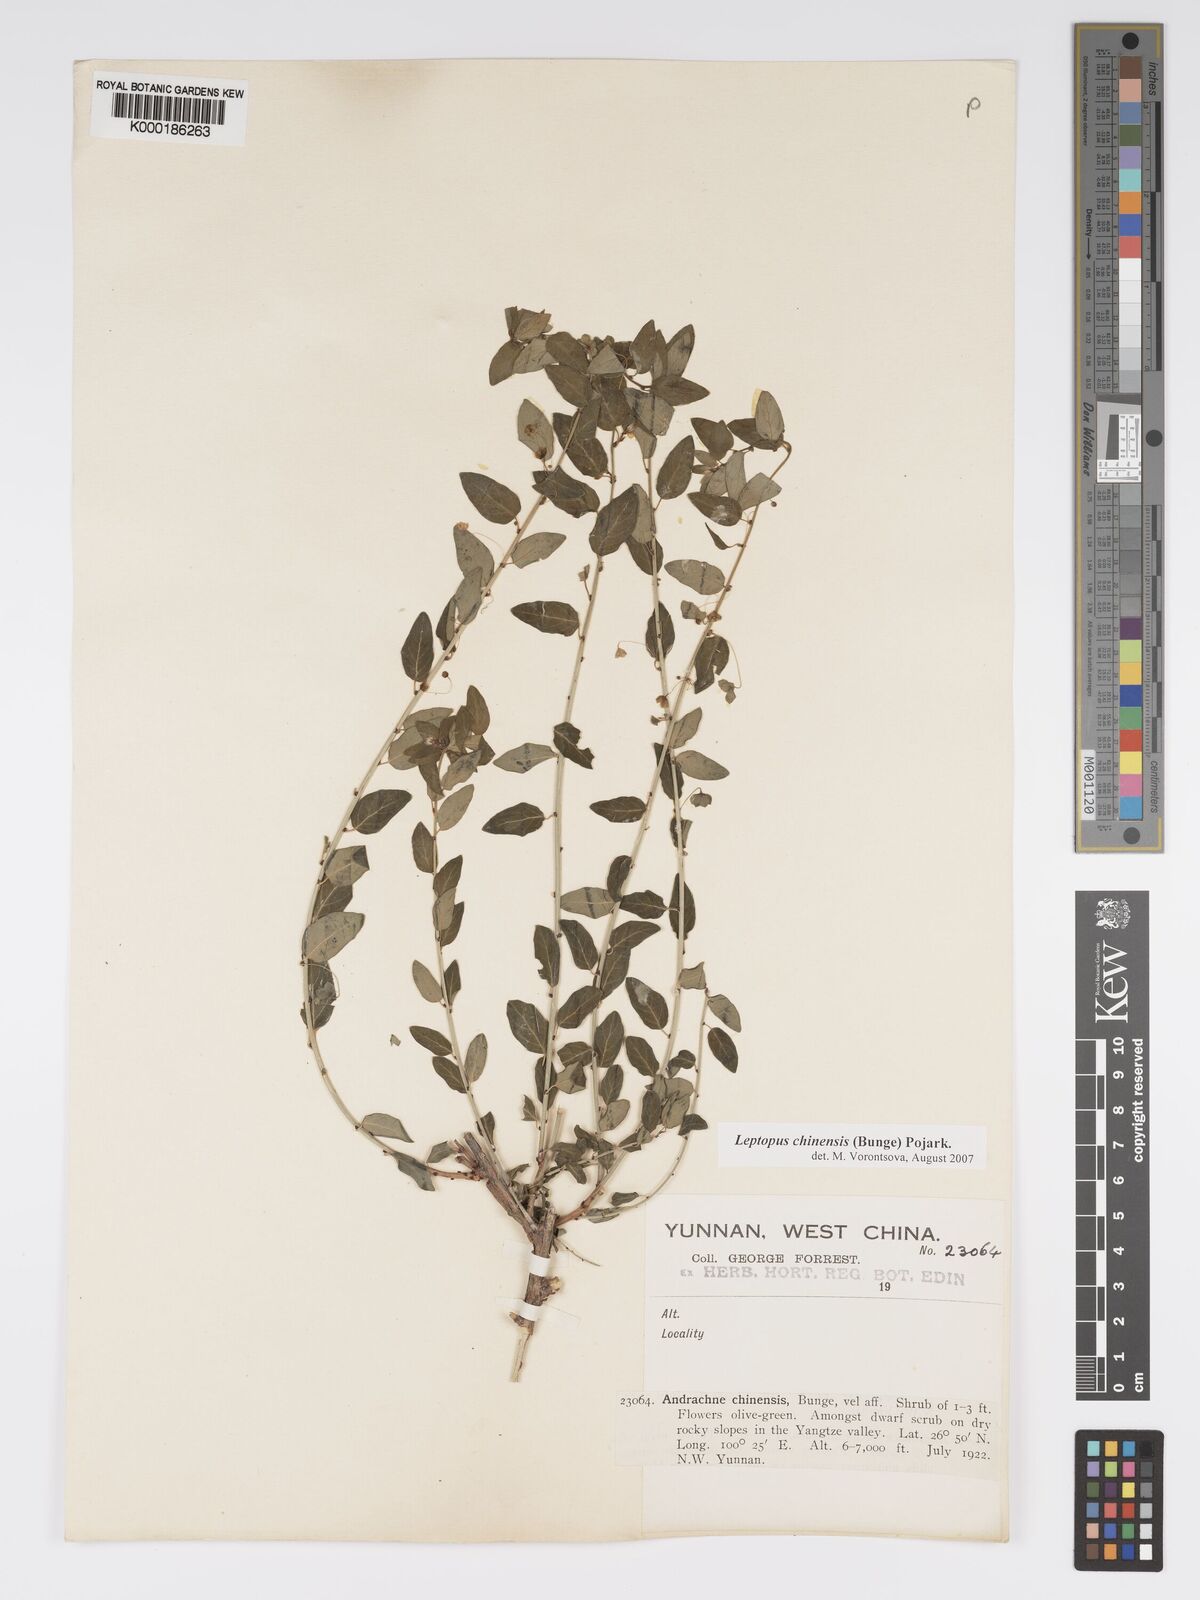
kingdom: Plantae
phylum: Tracheophyta
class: Magnoliopsida
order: Malpighiales
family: Phyllanthaceae
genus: Leptopus
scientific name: Leptopus chinensis
